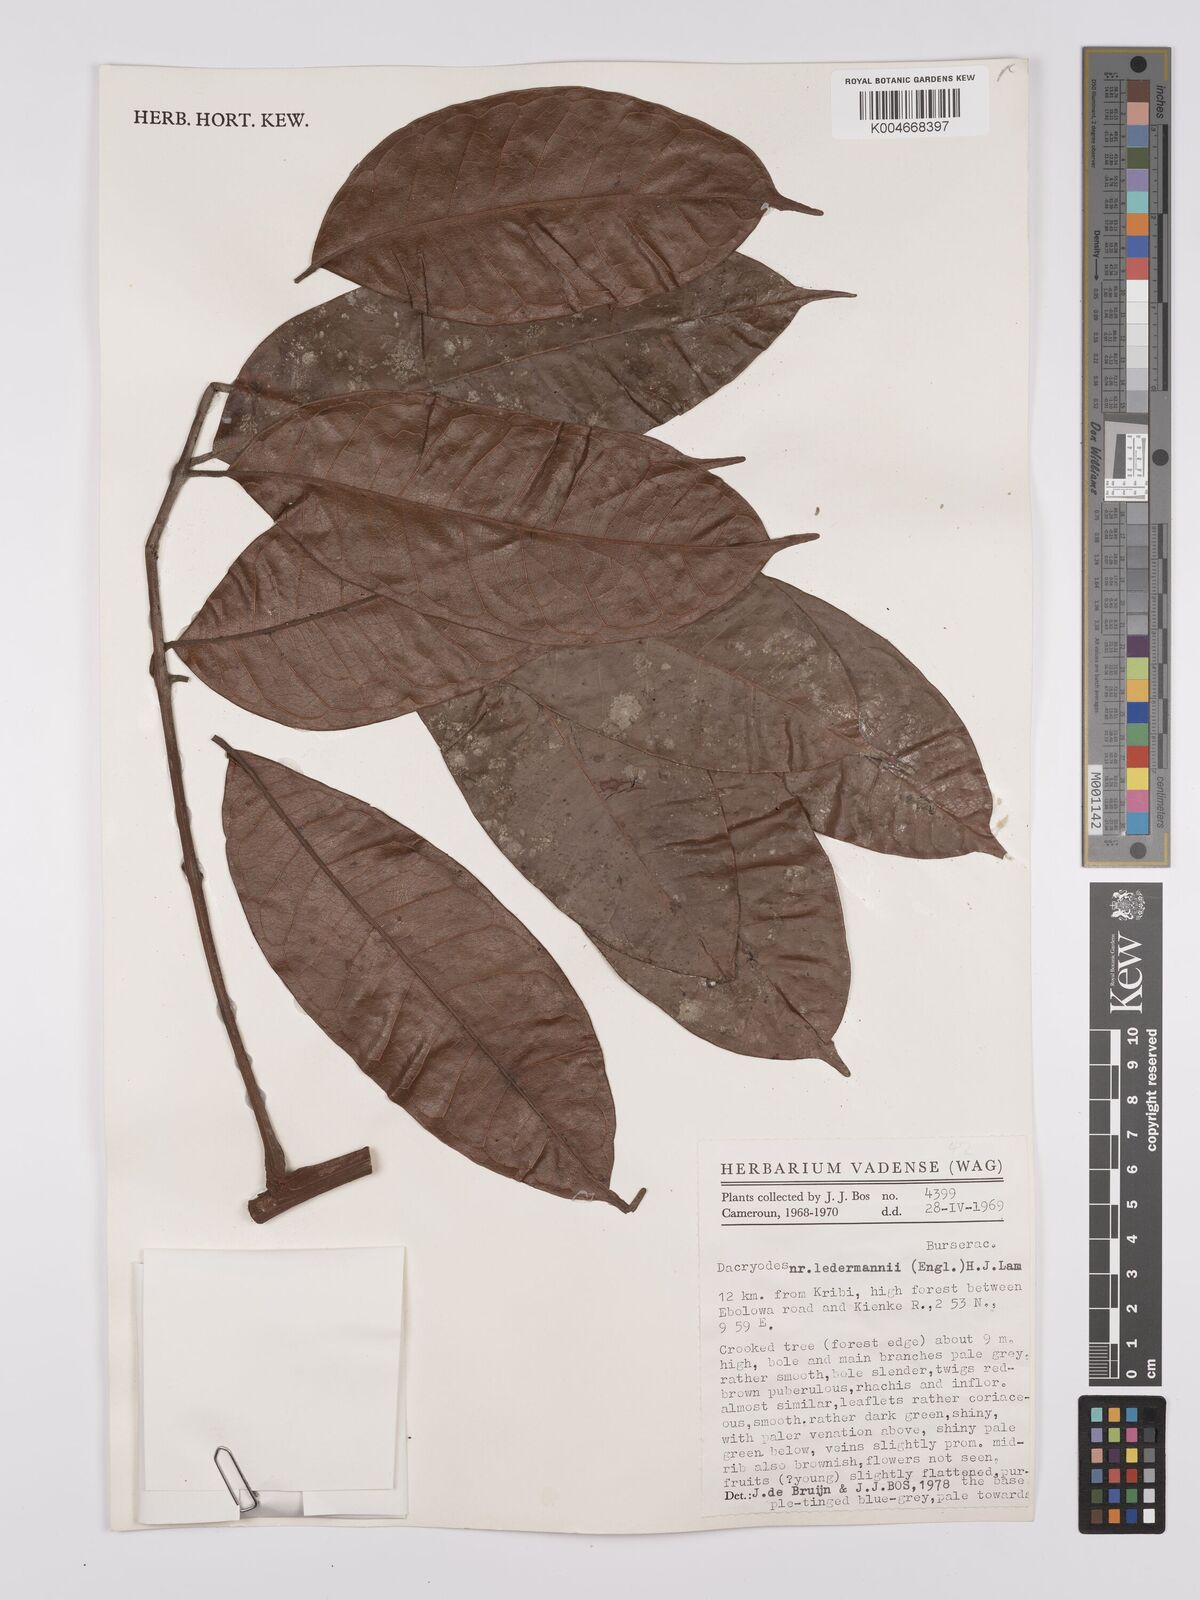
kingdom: Plantae
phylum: Tracheophyta
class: Magnoliopsida
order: Sapindales
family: Burseraceae
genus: Pachylobus
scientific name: Pachylobus ledermannii
